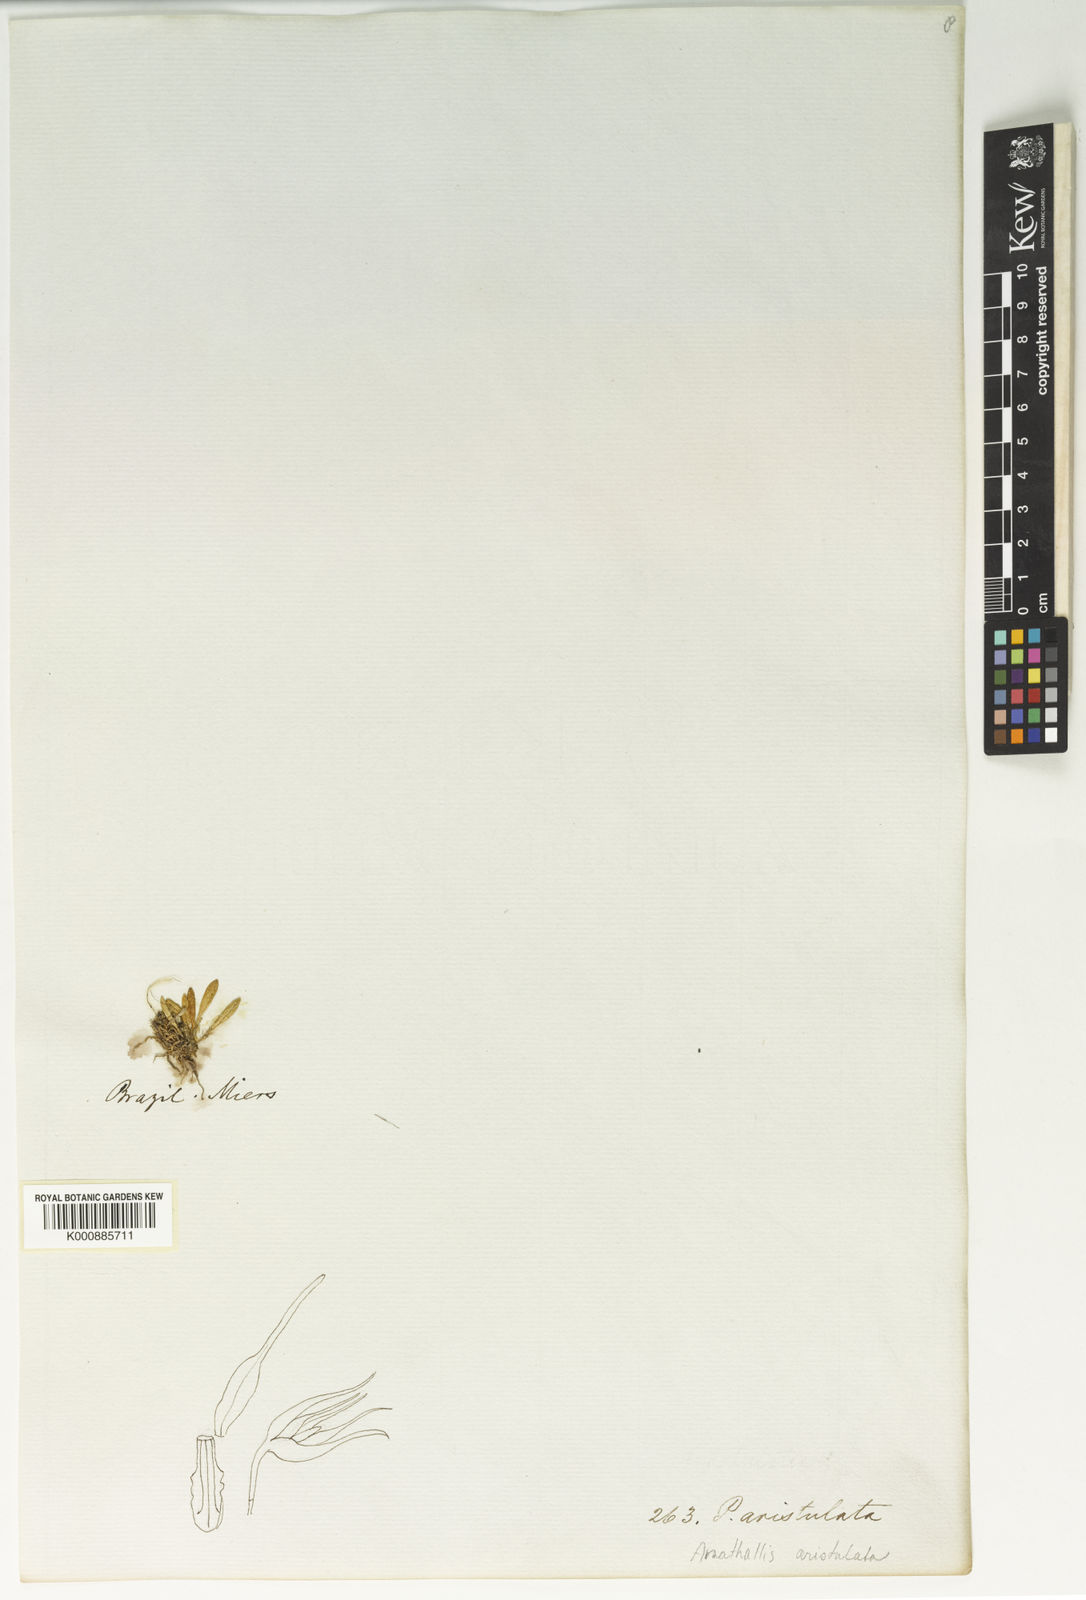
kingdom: Plantae
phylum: Tracheophyta
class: Liliopsida
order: Asparagales
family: Orchidaceae
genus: Anathallis
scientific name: Anathallis aristulata
